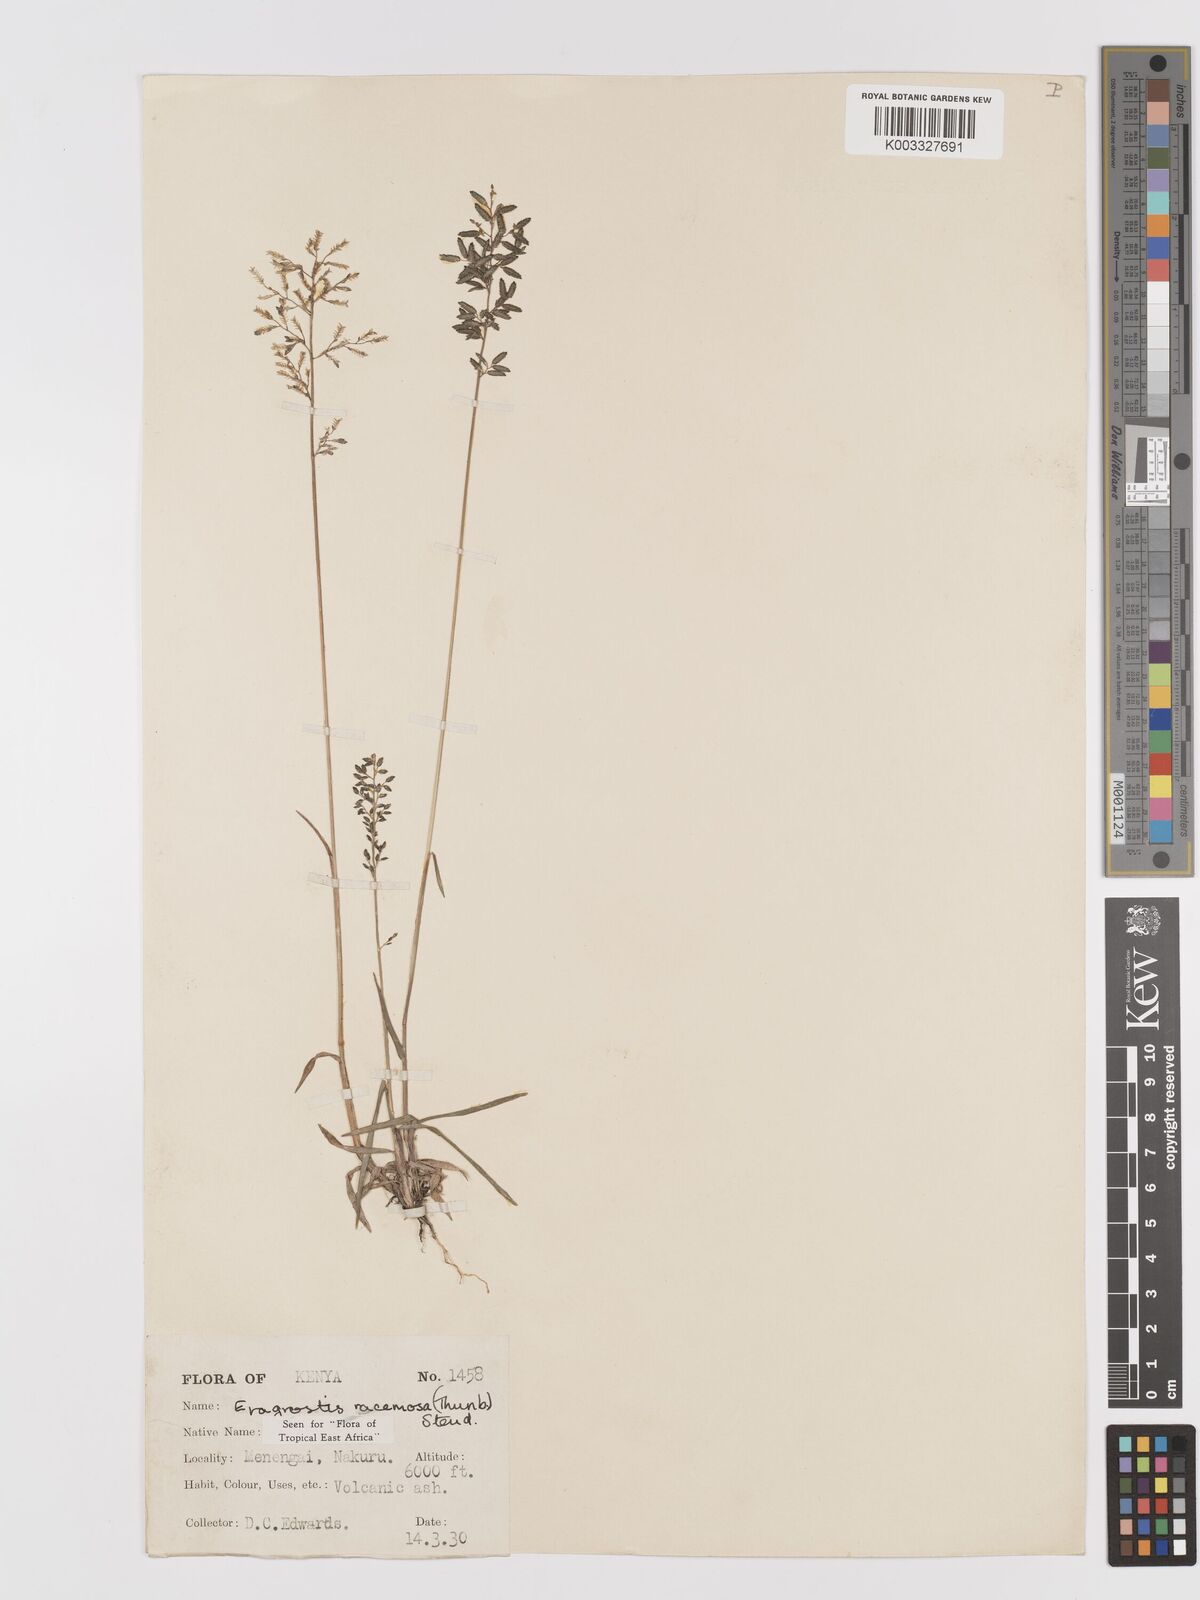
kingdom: Plantae
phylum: Tracheophyta
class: Liliopsida
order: Poales
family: Poaceae
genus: Eragrostis
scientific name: Eragrostis racemosa
